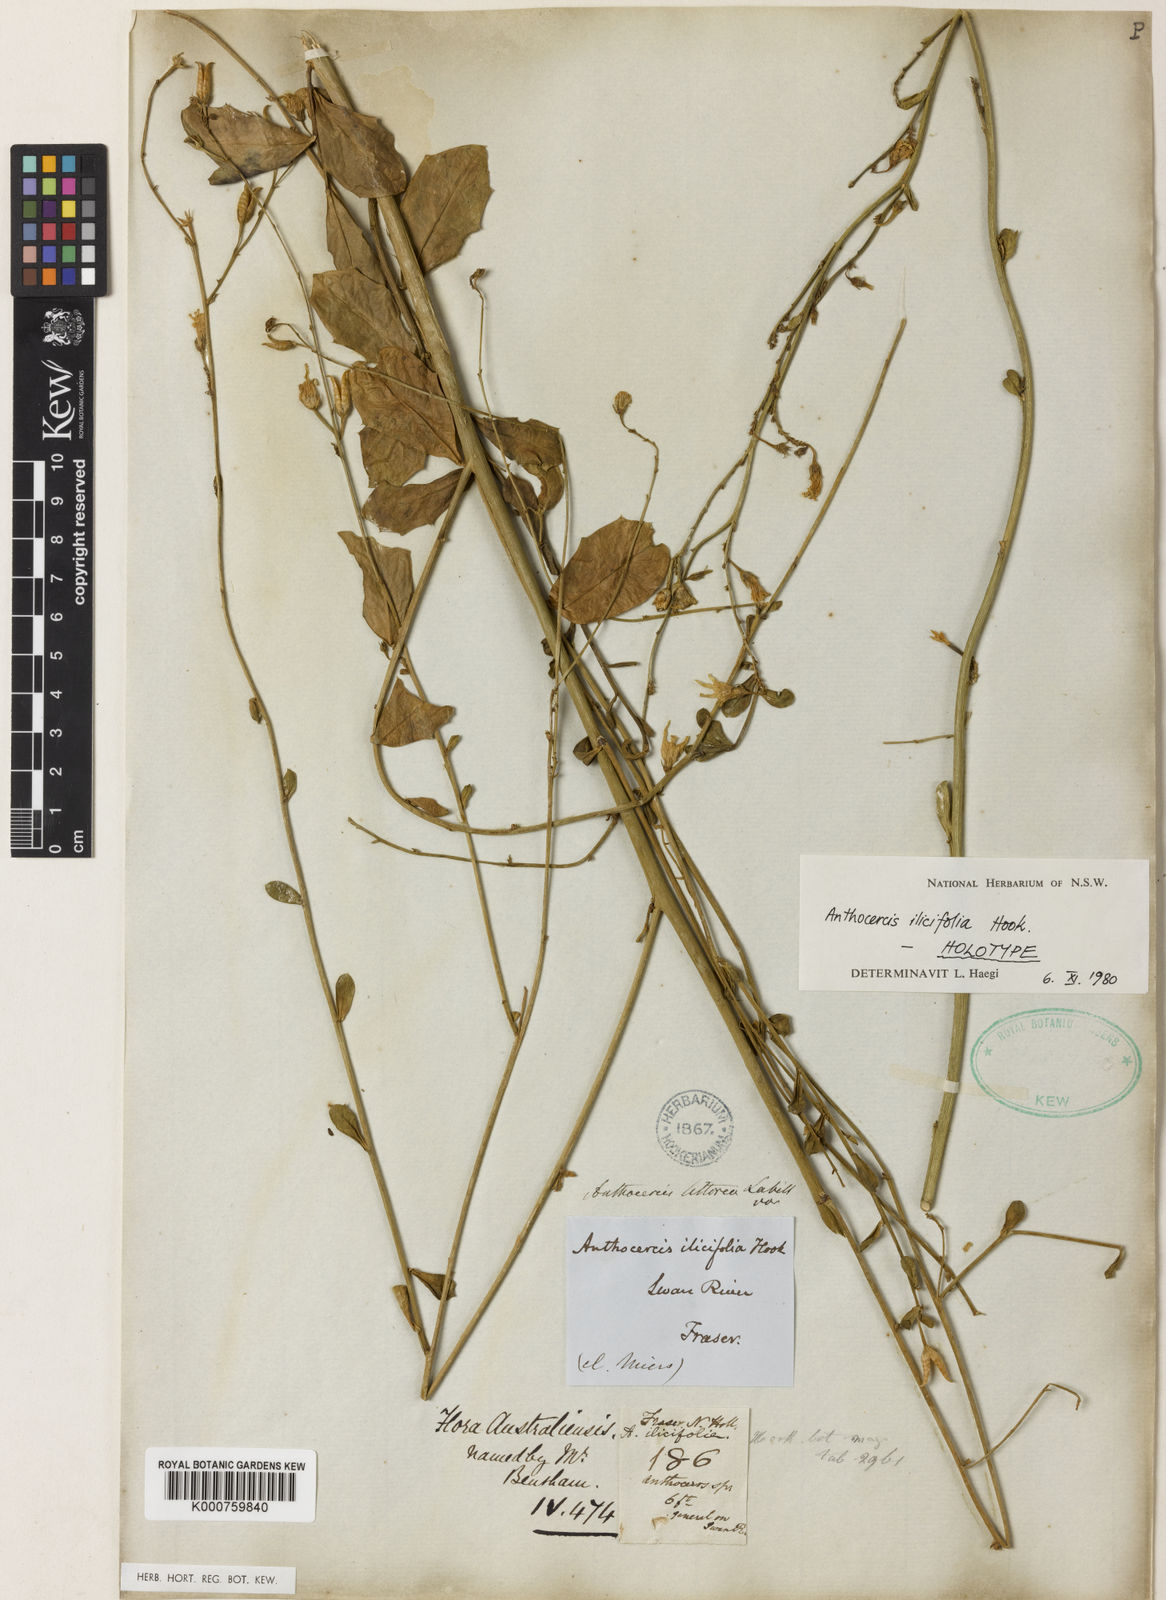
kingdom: Plantae
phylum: Tracheophyta
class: Magnoliopsida
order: Solanales
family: Solanaceae
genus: Anthocercis
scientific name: Anthocercis littorea
